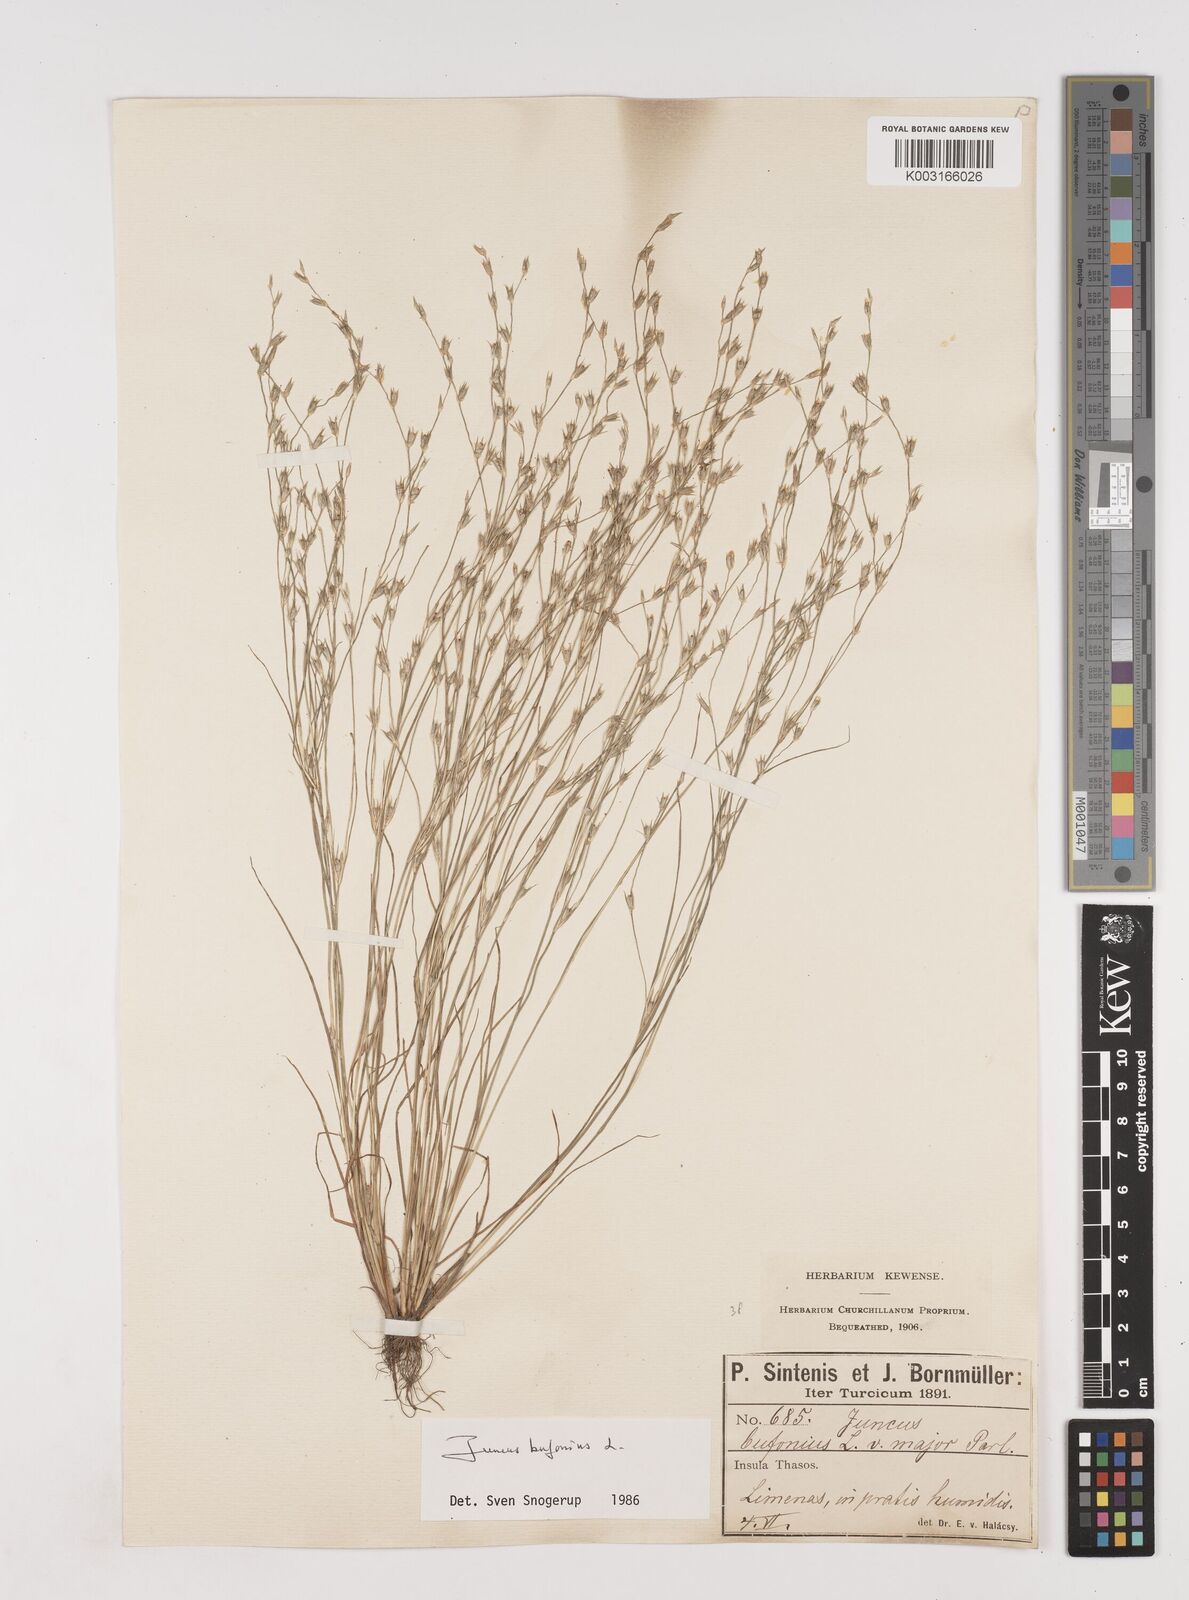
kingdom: Plantae
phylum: Tracheophyta
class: Liliopsida
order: Poales
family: Juncaceae
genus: Juncus
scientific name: Juncus bufonius
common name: Toad rush
